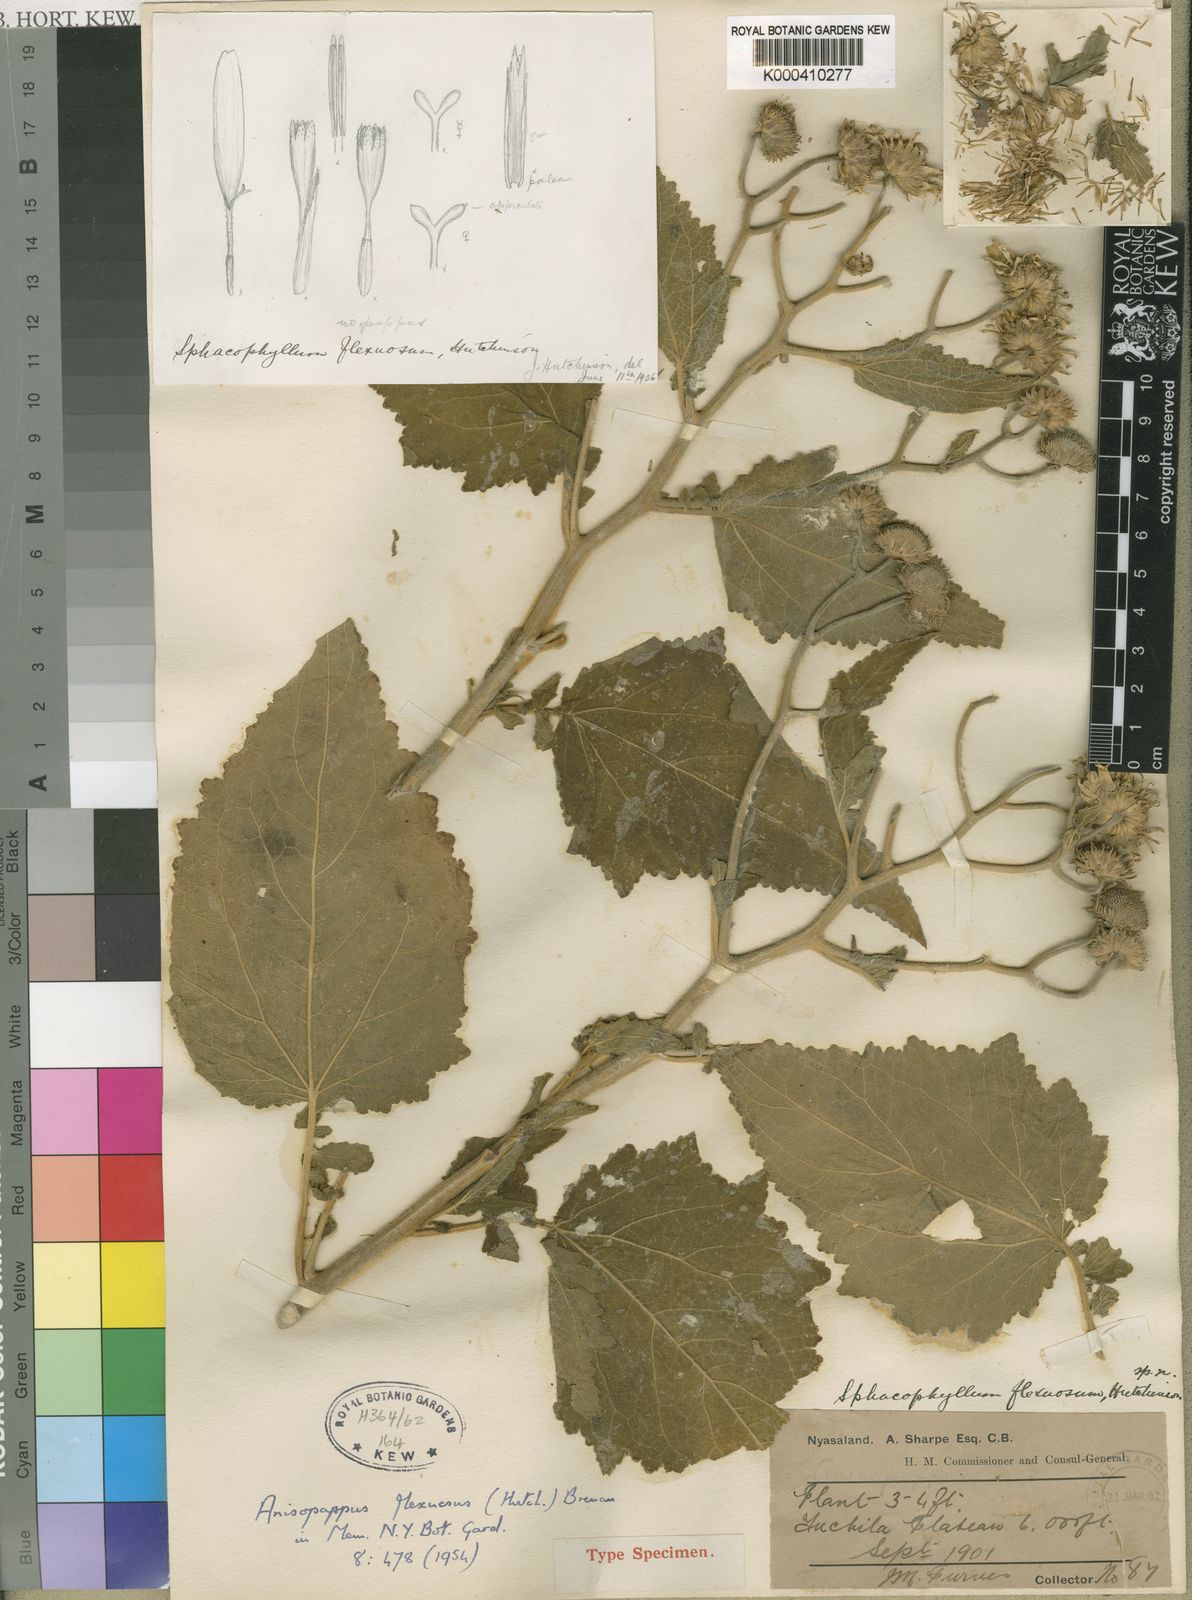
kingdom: Plantae
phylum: Tracheophyta
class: Magnoliopsida
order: Asterales
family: Asteraceae
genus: Anisopappus
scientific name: Anisopappus kirkii
